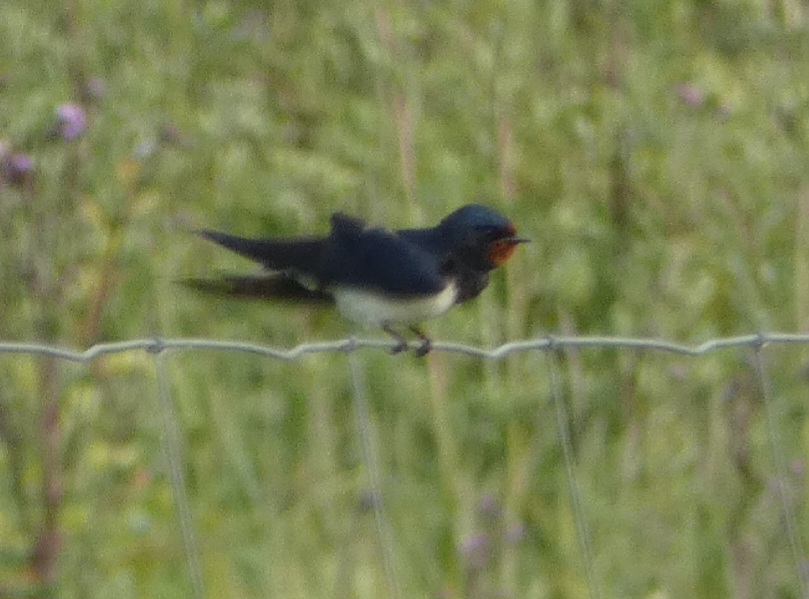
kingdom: Animalia
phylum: Chordata
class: Aves
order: Passeriformes
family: Hirundinidae
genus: Hirundo
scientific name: Hirundo rustica
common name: Landsvale
